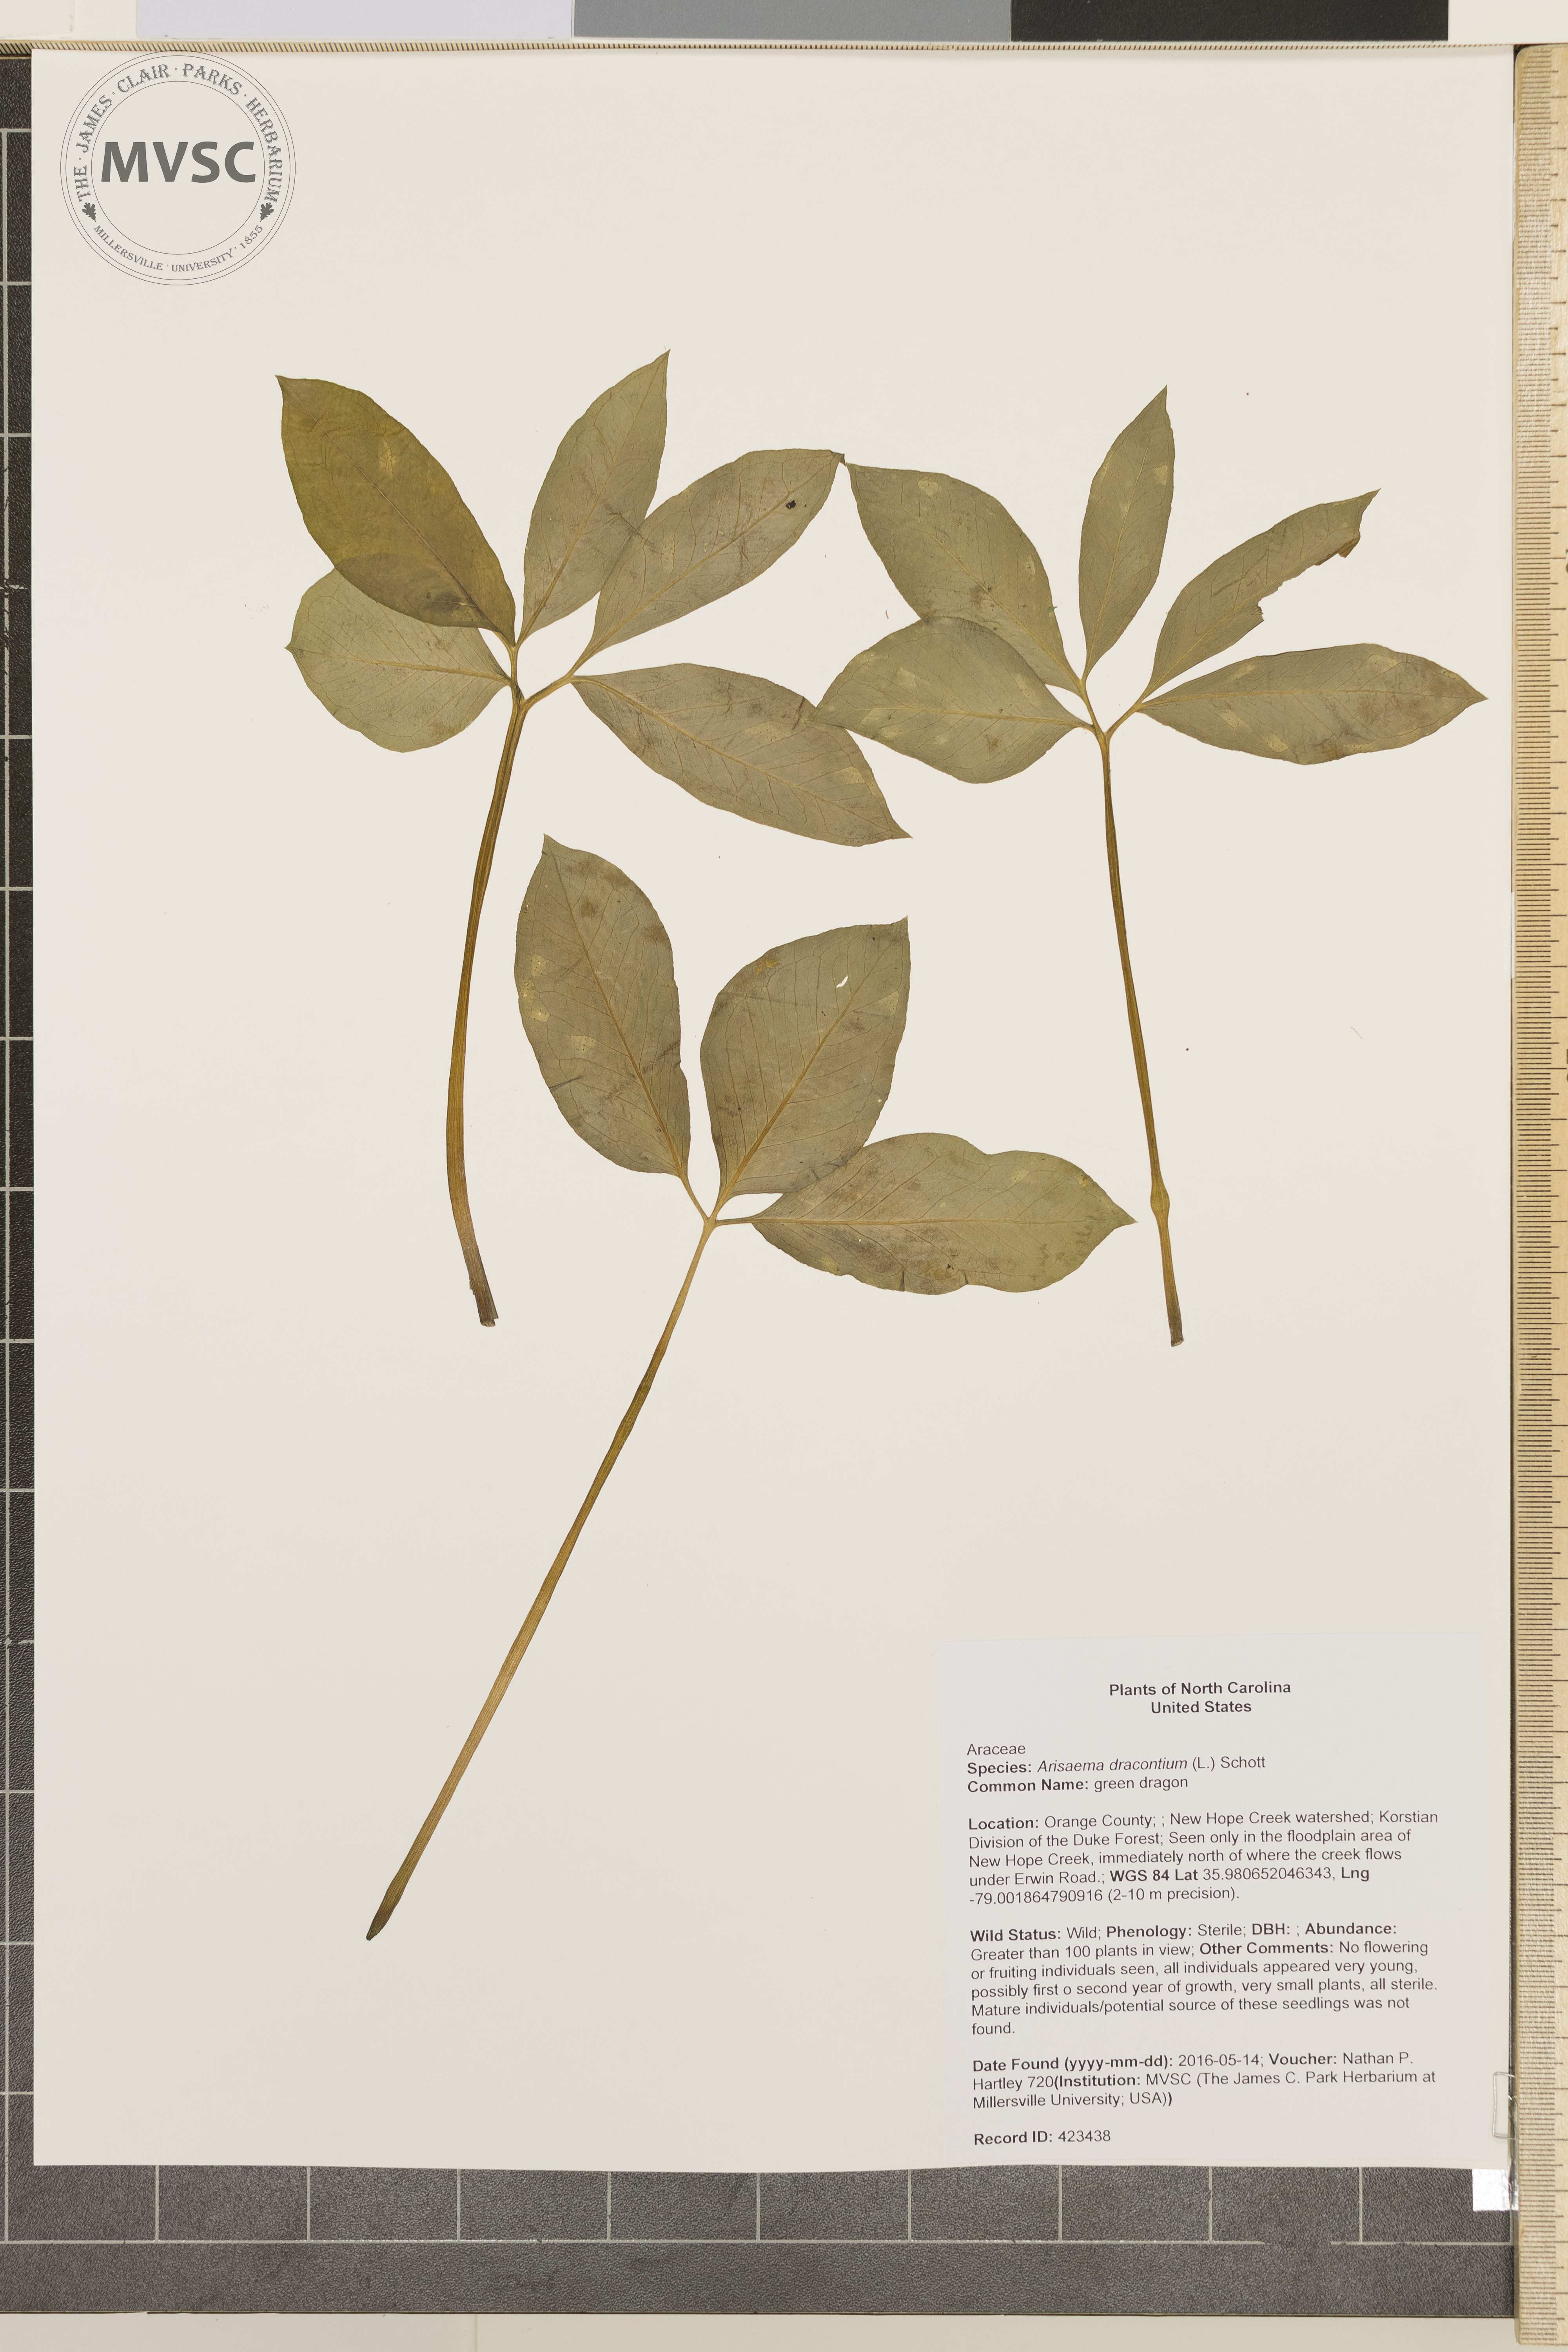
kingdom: Plantae
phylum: Tracheophyta
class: Liliopsida
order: Alismatales
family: Araceae
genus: Arisaema
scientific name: Arisaema dracontium
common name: green dragon
